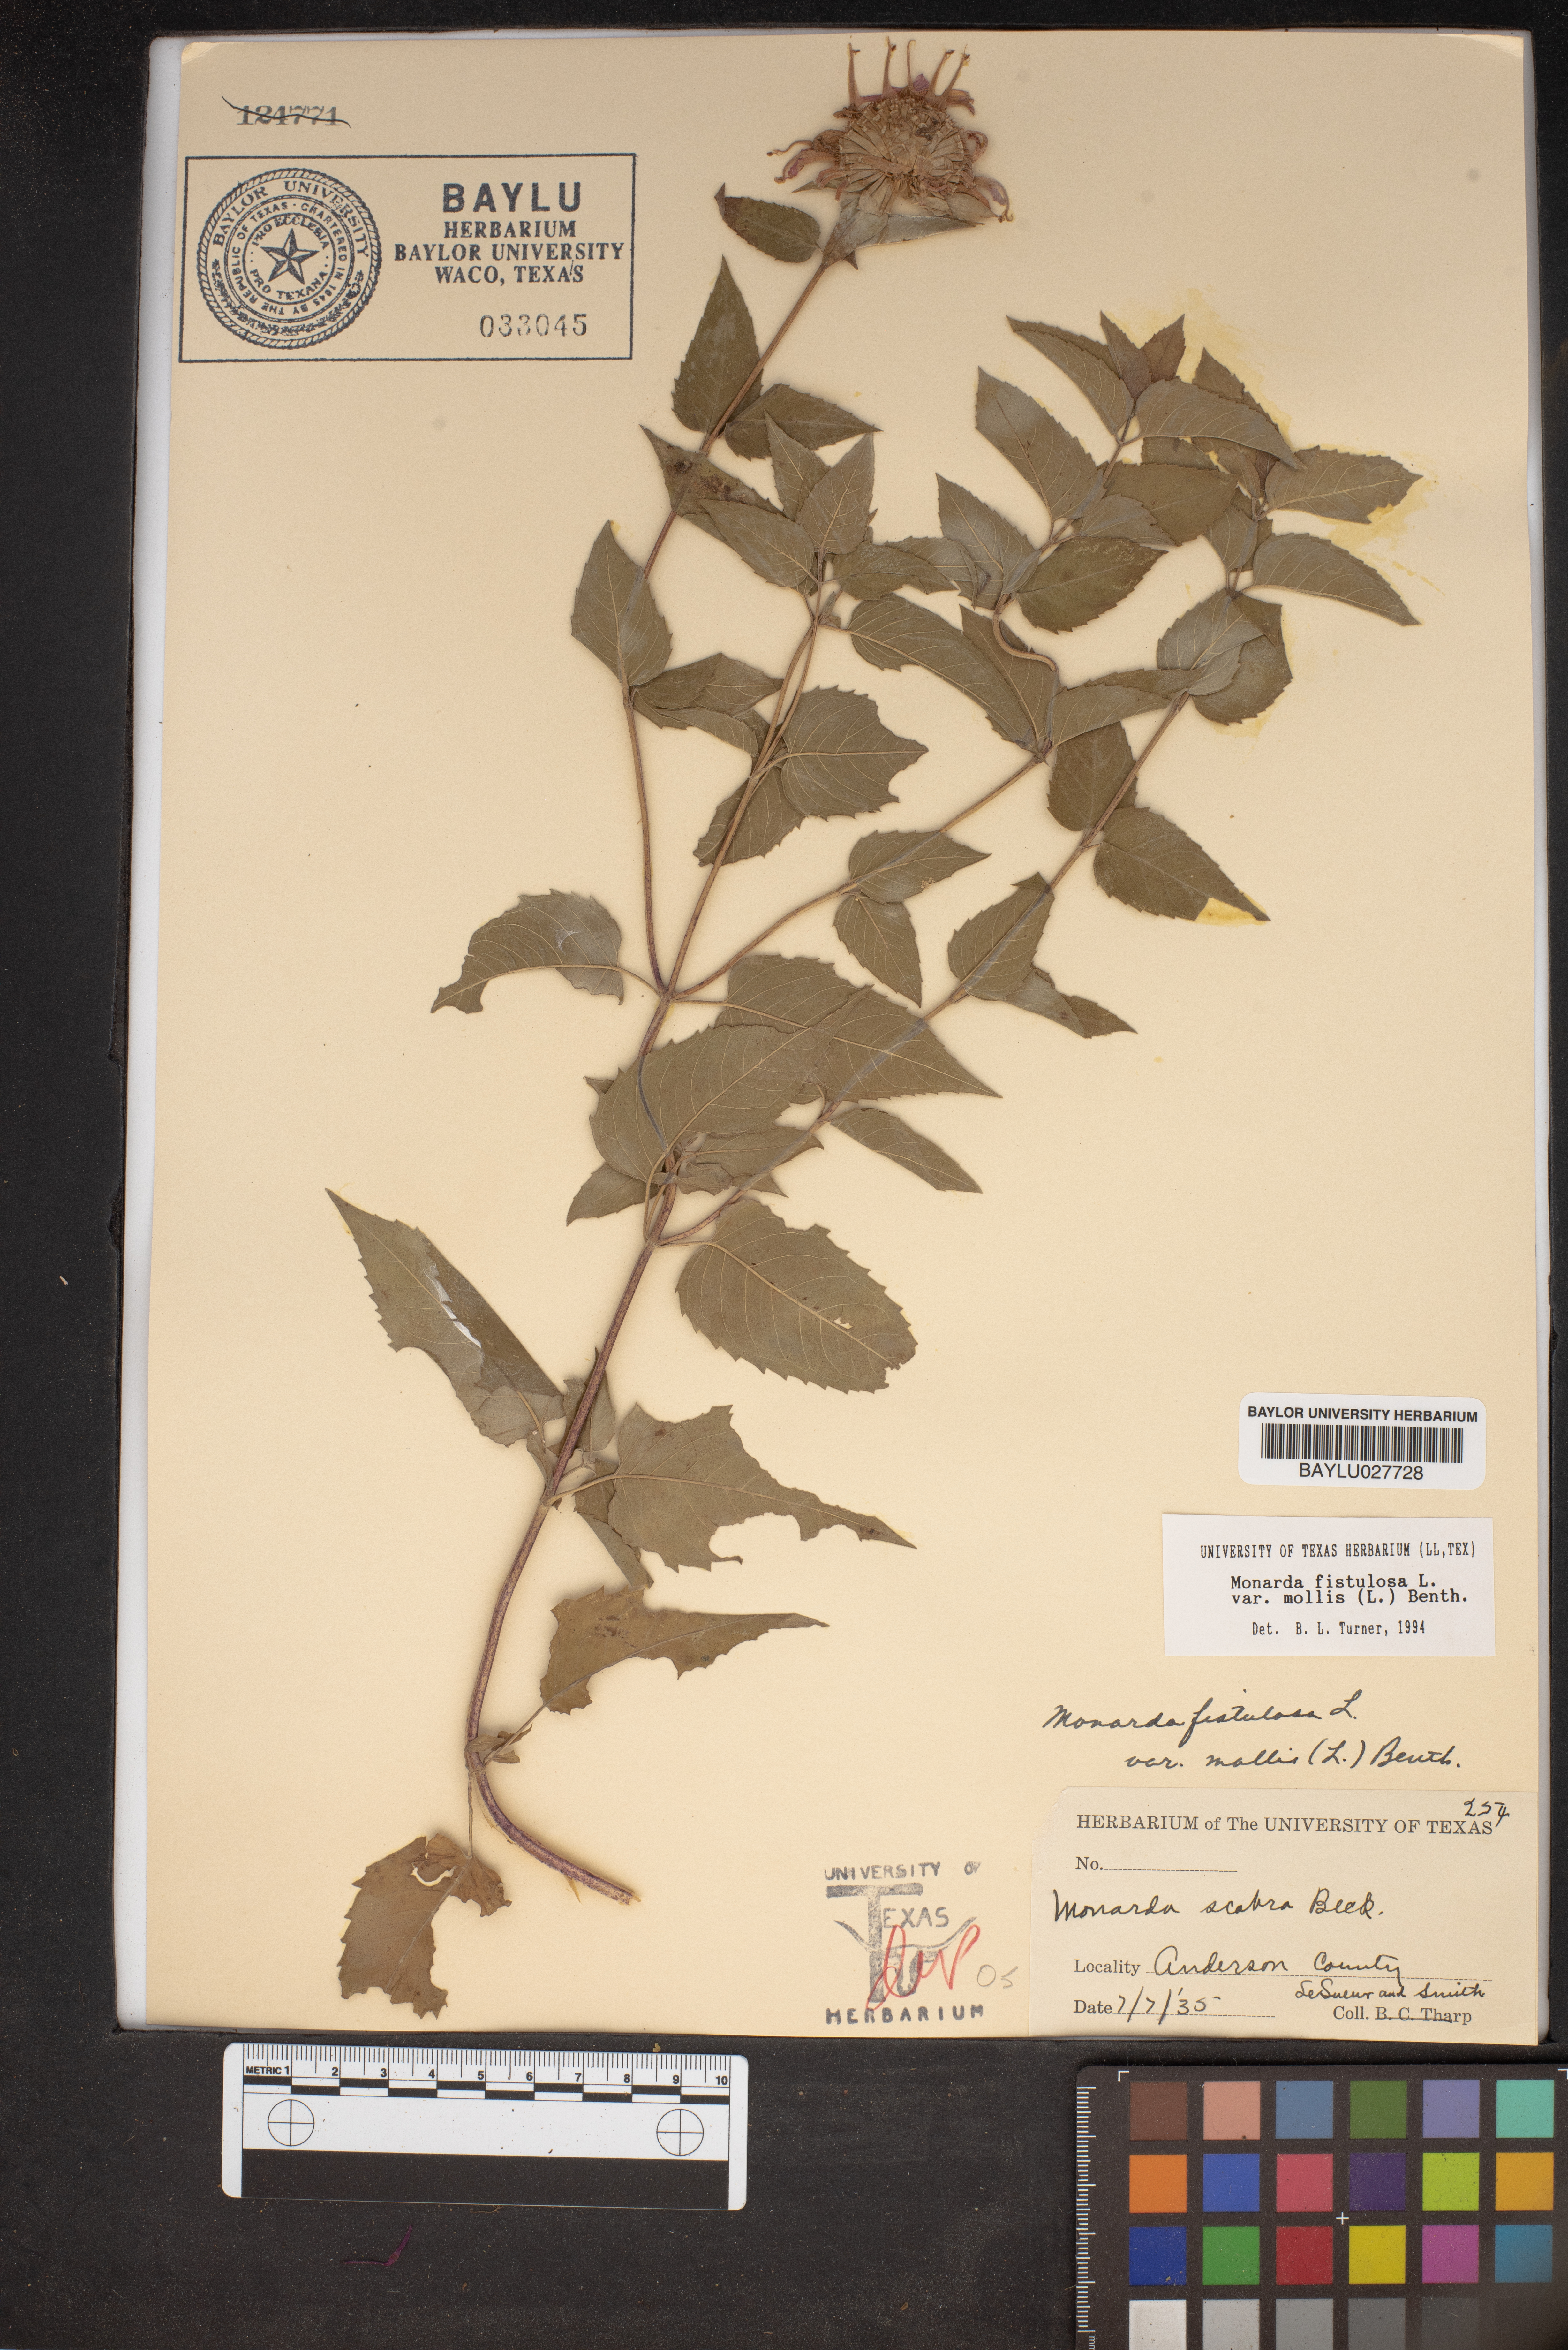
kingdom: Plantae
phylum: Tracheophyta
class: Magnoliopsida
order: Lamiales
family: Lamiaceae
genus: Monarda
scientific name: Monarda fistulosa
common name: Purple beebalm
